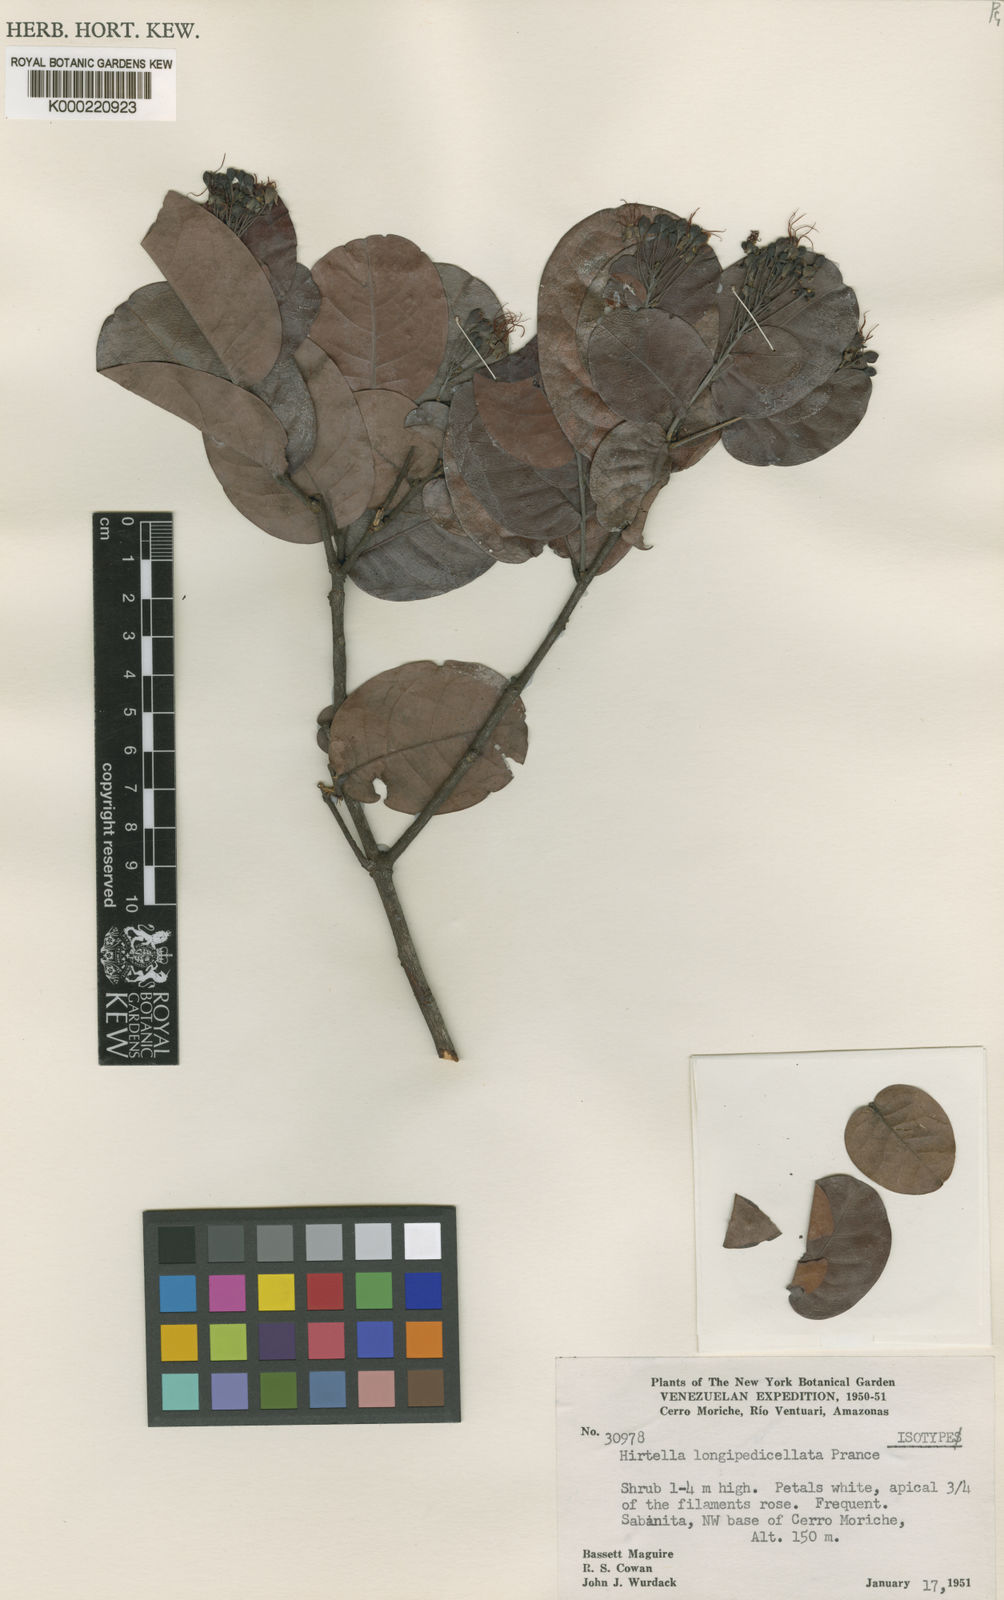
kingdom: Plantae
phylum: Tracheophyta
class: Magnoliopsida
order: Malpighiales
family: Chrysobalanaceae
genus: Hirtella
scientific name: Hirtella longipedicellata
